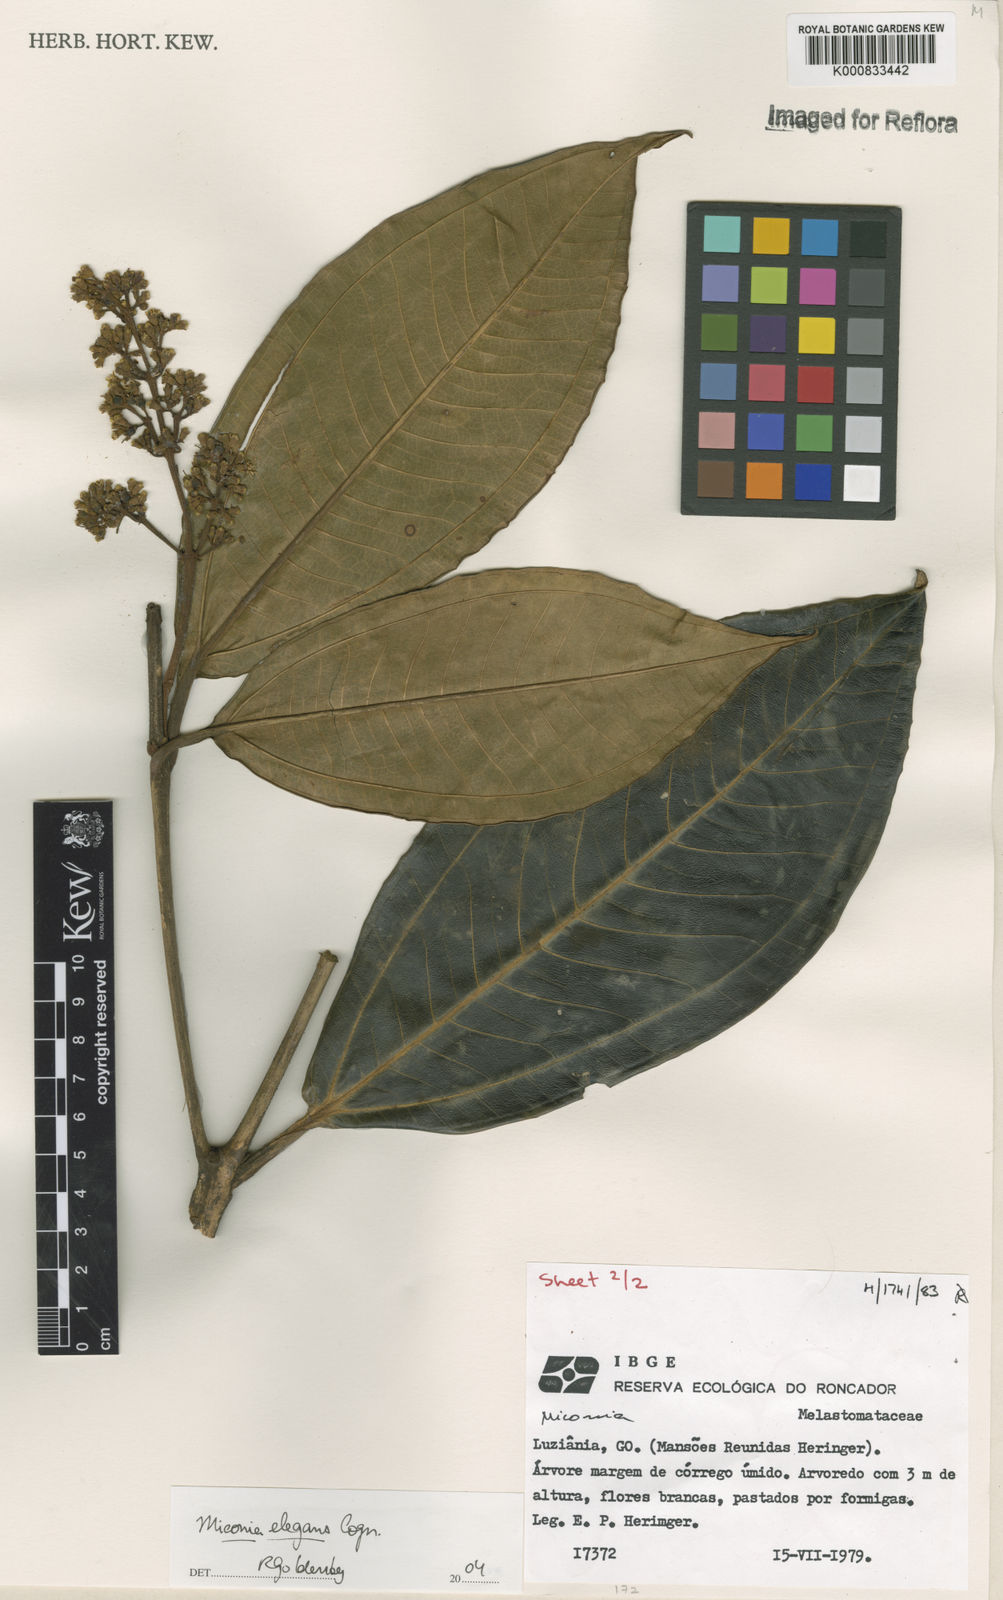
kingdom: Plantae
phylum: Tracheophyta
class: Magnoliopsida
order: Myrtales
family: Melastomataceae
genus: Miconia
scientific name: Miconia elegans
